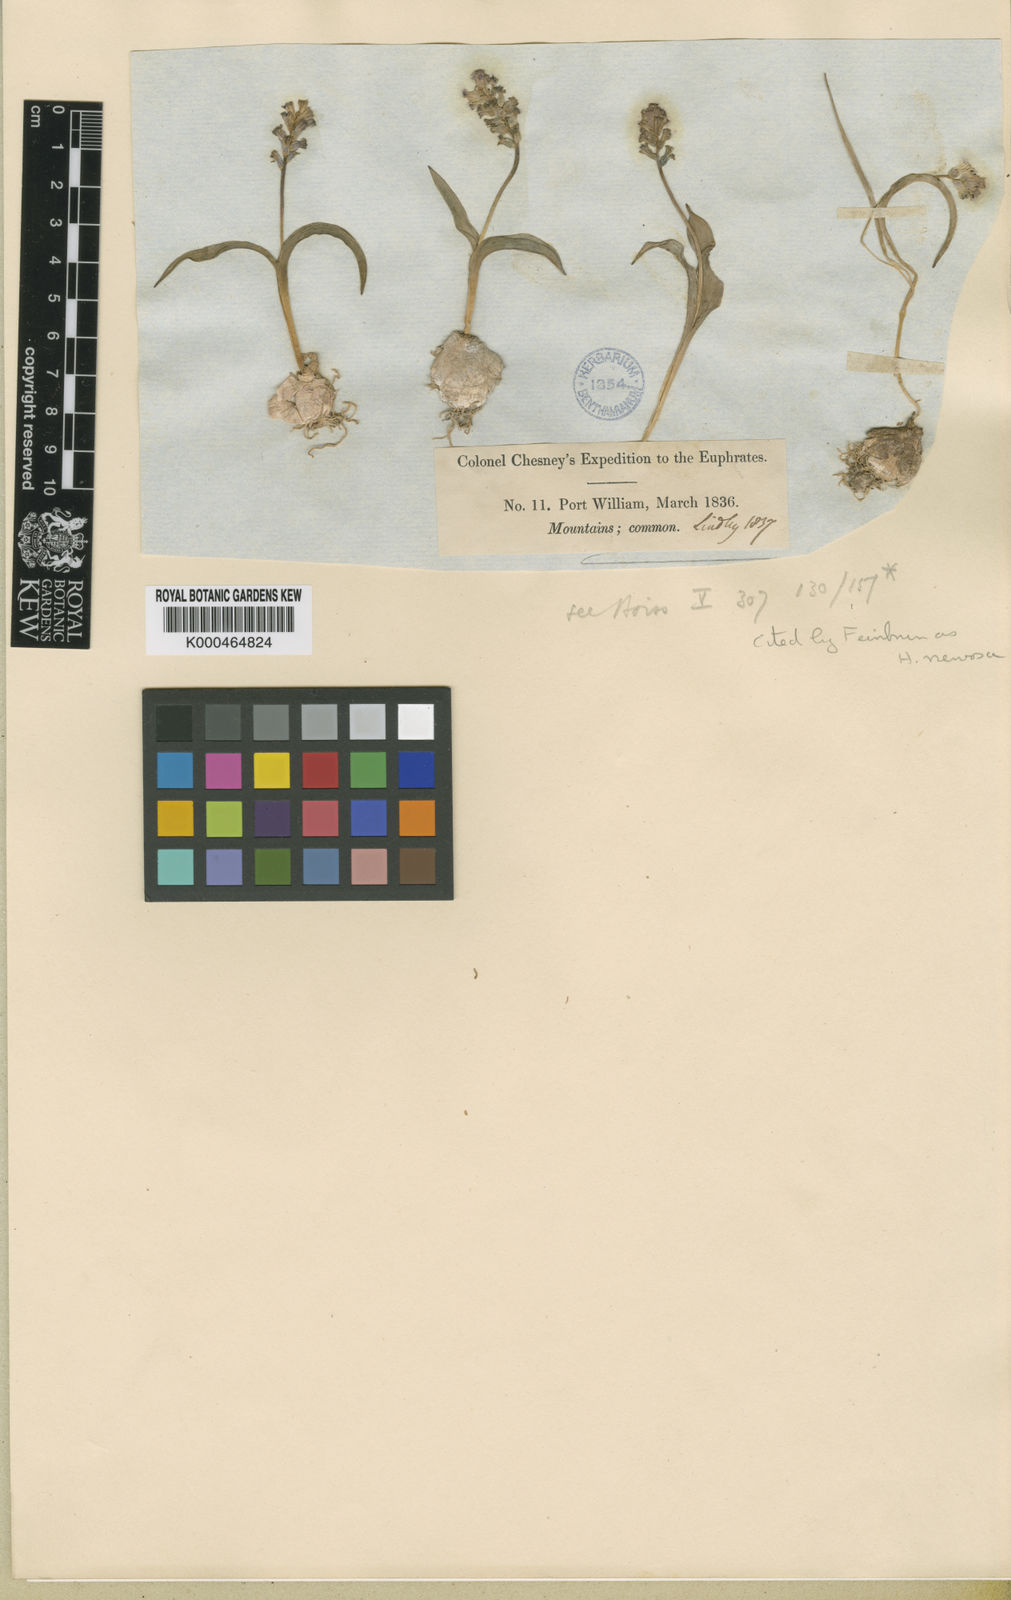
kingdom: Plantae
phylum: Tracheophyta
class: Liliopsida
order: Asparagales
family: Asparagaceae
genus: Hyacinthella
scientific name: Hyacinthella nervosa
